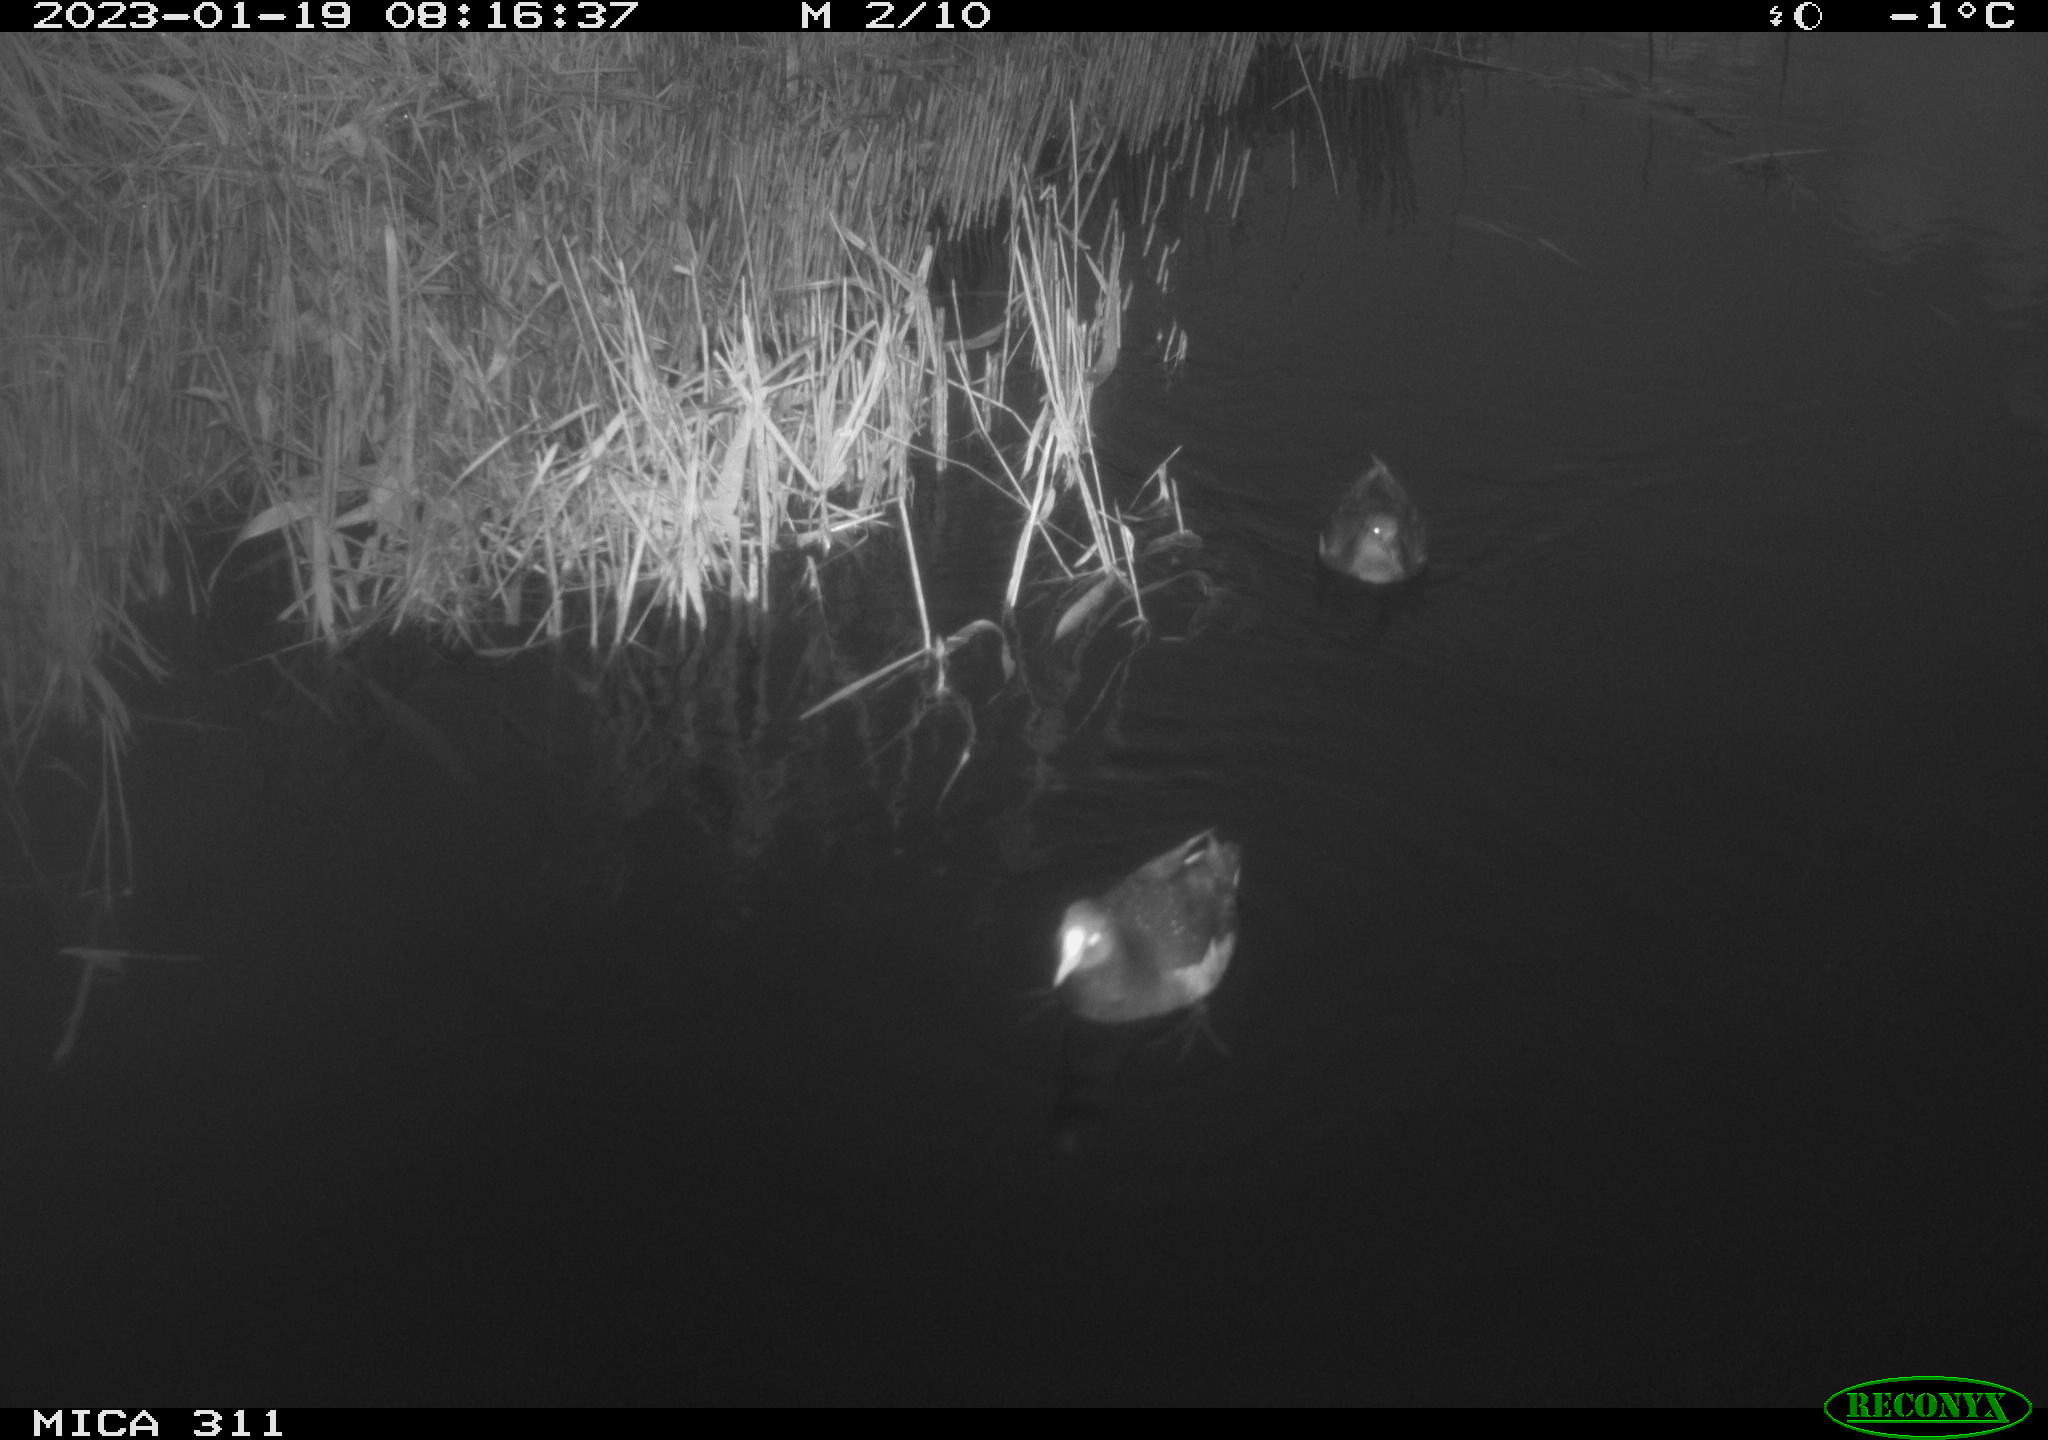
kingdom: Animalia
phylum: Chordata
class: Aves
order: Anseriformes
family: Anatidae
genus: Anas
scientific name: Anas
